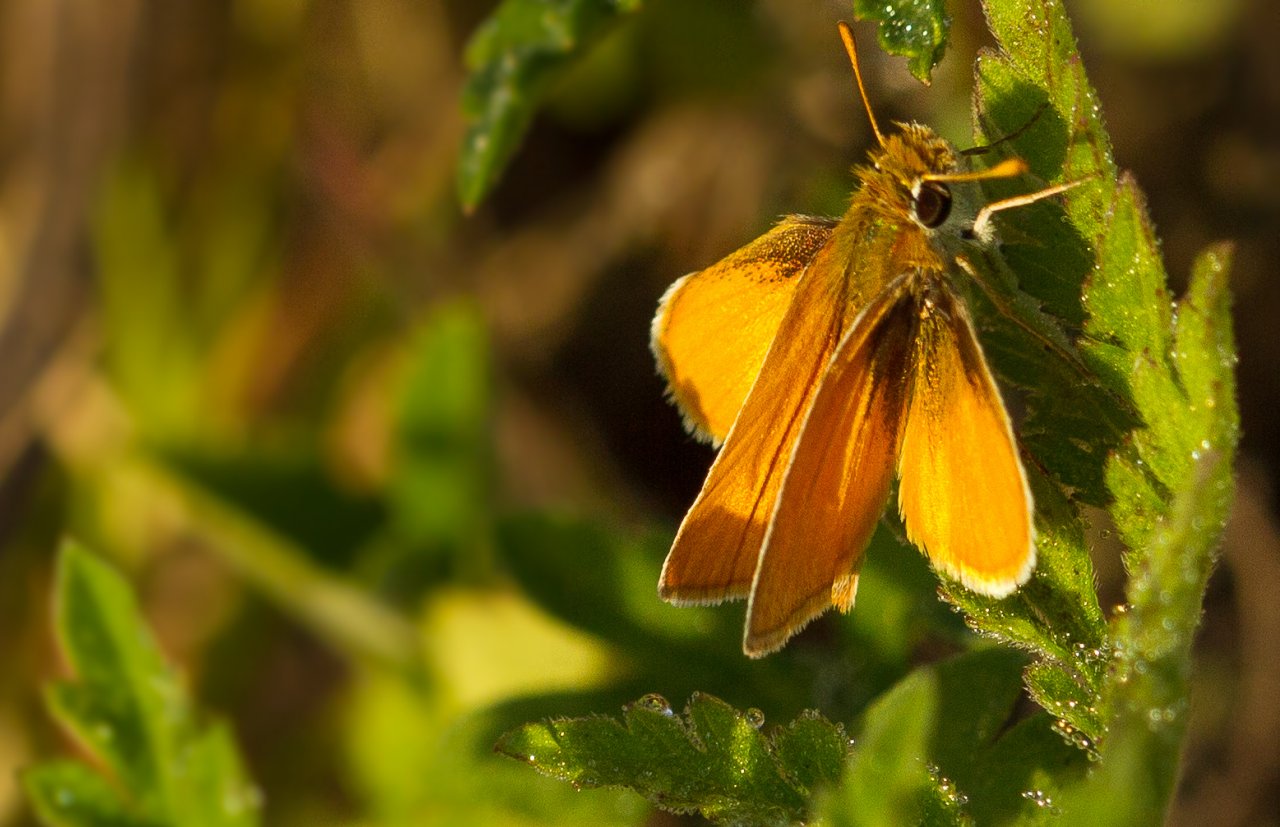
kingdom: Animalia
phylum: Arthropoda
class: Insecta
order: Lepidoptera
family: Hesperiidae
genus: Copaeodes
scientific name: Copaeodes minima
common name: Southern Skipperling
